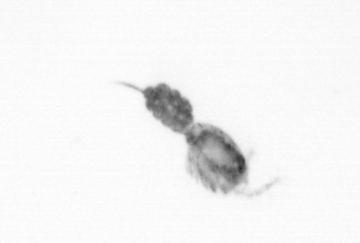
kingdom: Animalia
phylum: Arthropoda
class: Copepoda
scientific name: Copepoda
